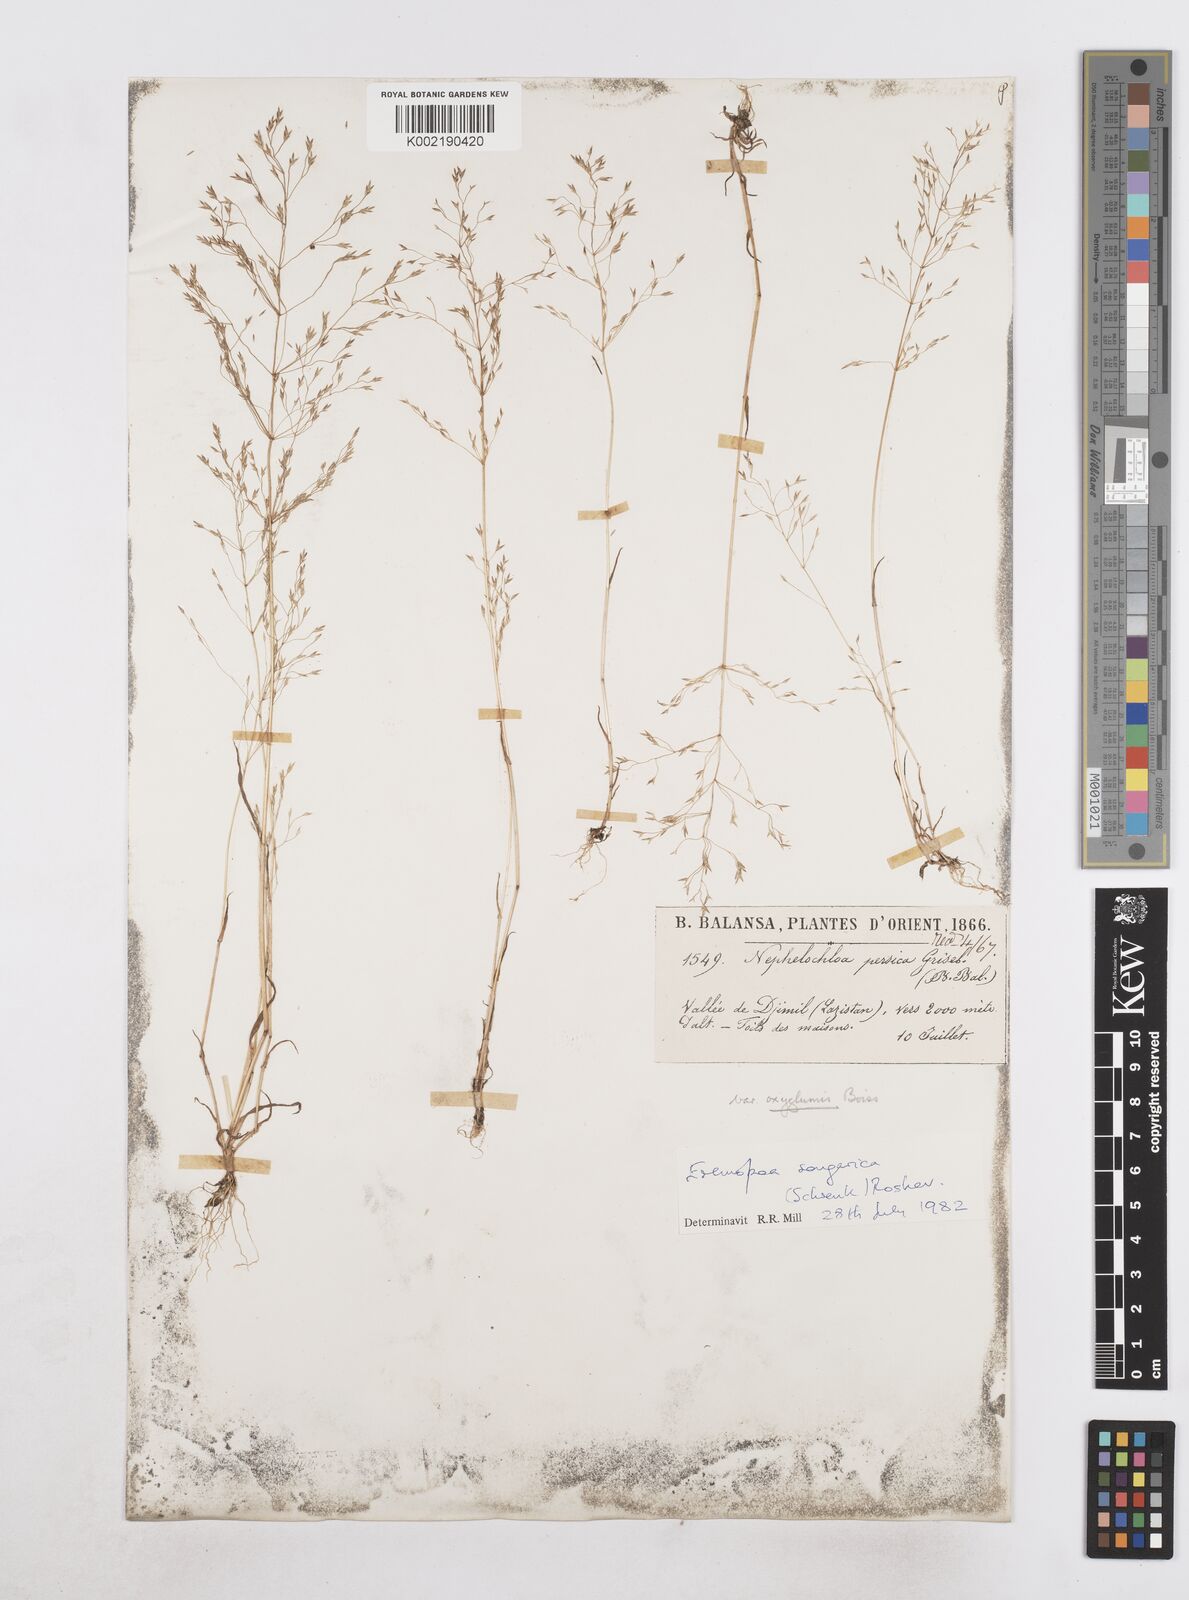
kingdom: Plantae
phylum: Tracheophyta
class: Liliopsida
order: Poales
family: Poaceae
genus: Poa
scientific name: Poa diaphora
